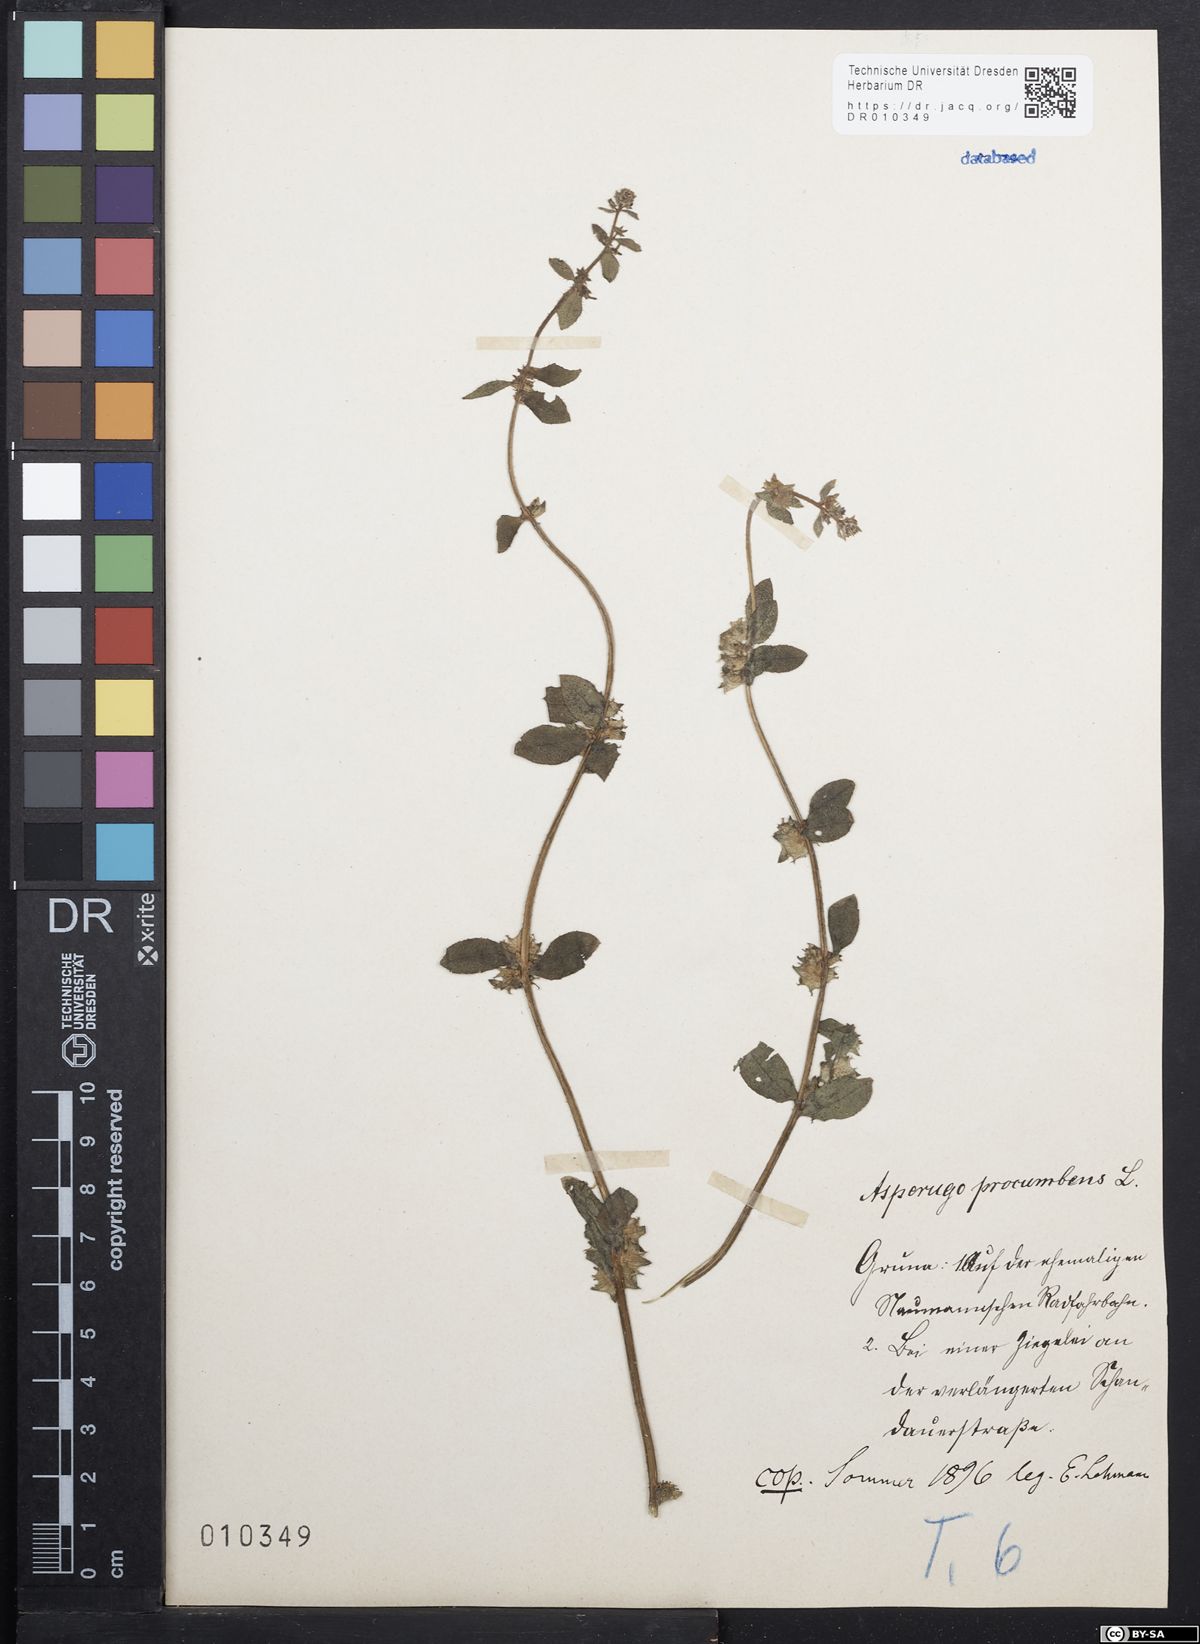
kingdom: Plantae
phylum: Tracheophyta
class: Magnoliopsida
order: Boraginales
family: Boraginaceae
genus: Asperugo
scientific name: Asperugo procumbens
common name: Madwort
